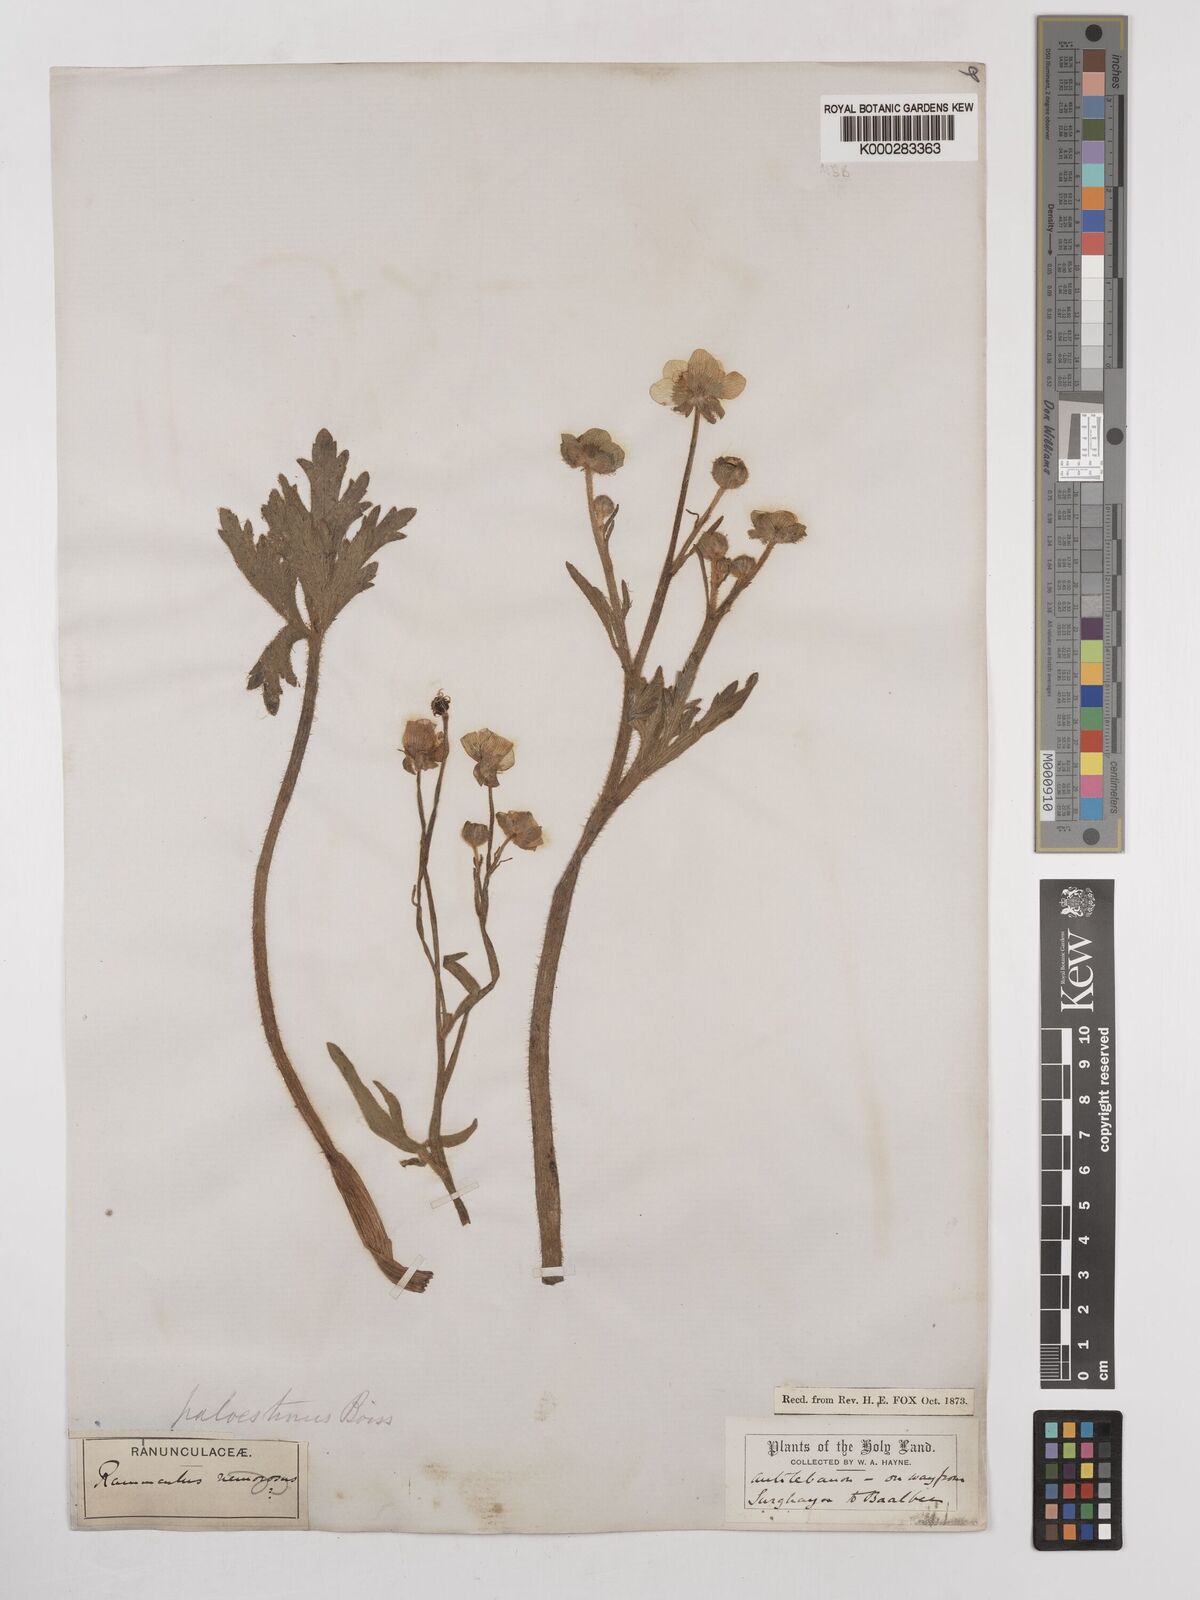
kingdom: Plantae
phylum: Tracheophyta
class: Magnoliopsida
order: Ranunculales
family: Ranunculaceae
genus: Ranunculus
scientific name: Ranunculus constantinopolitanus
